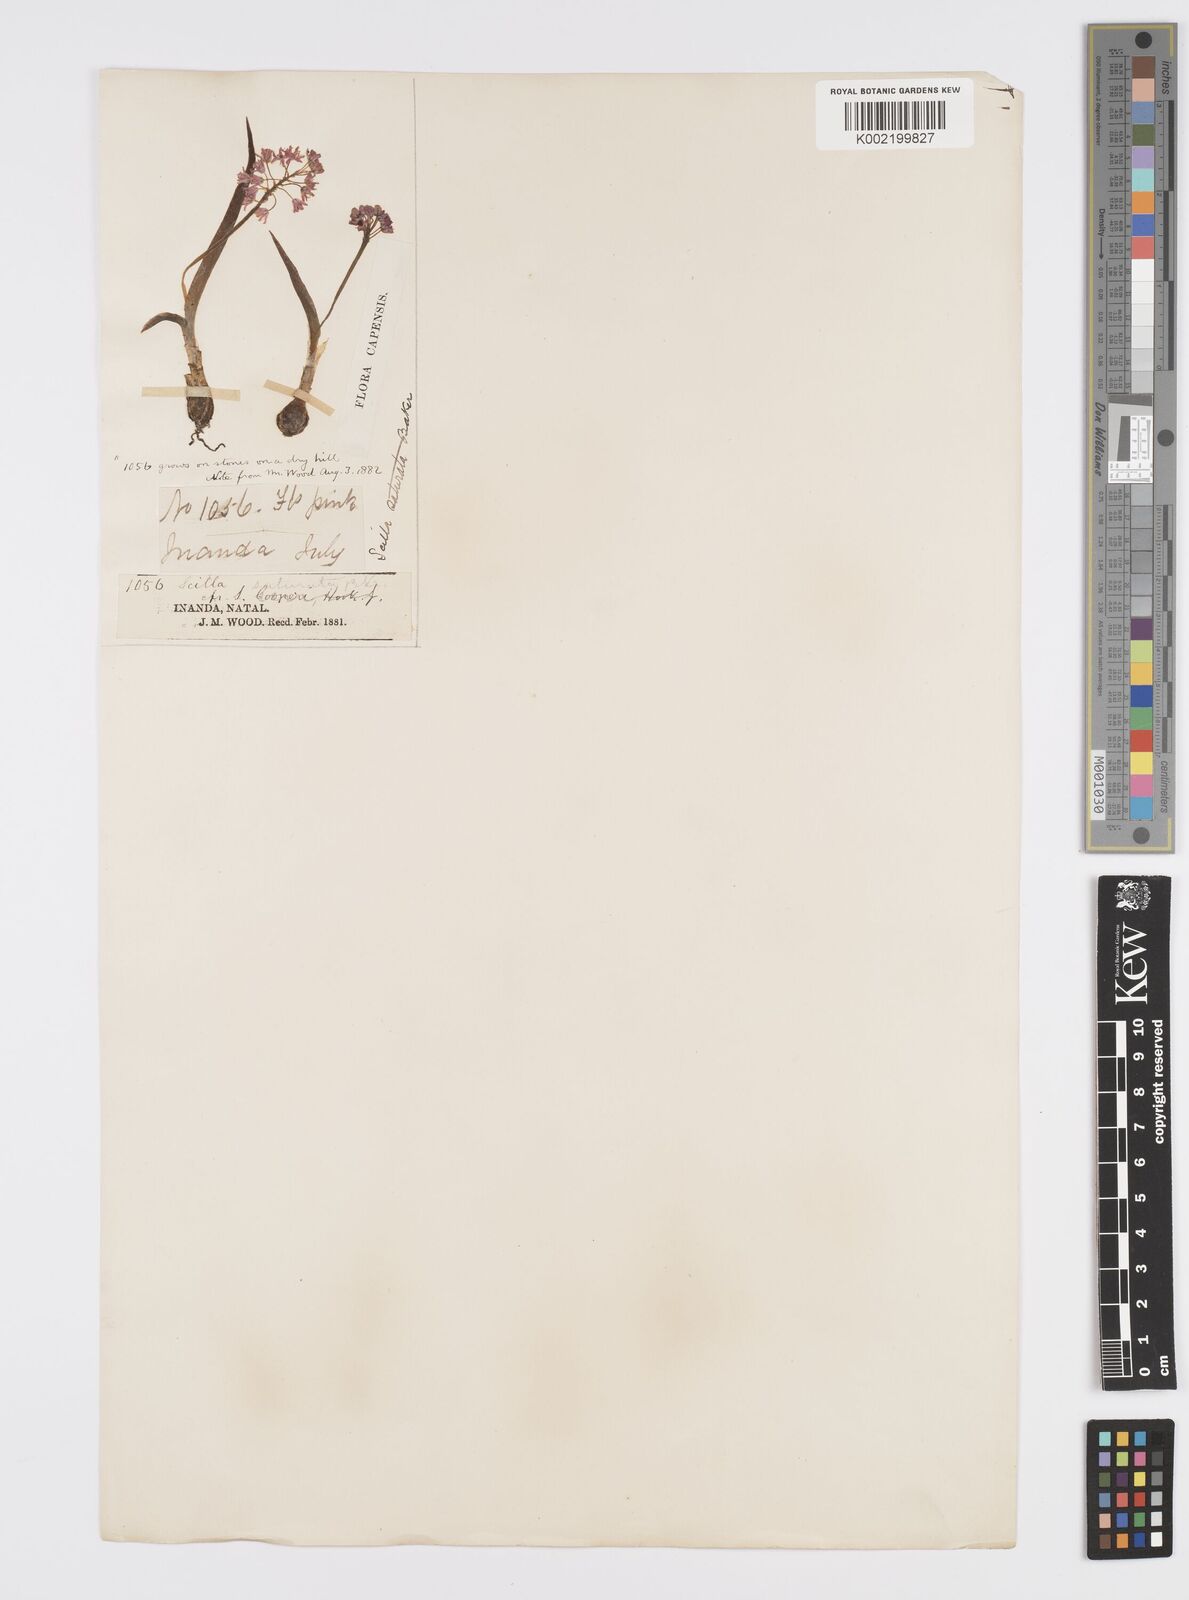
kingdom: Plantae
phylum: Tracheophyta
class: Liliopsida
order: Asparagales
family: Asparagaceae
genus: Ledebouria
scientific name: Ledebouria cooperi
